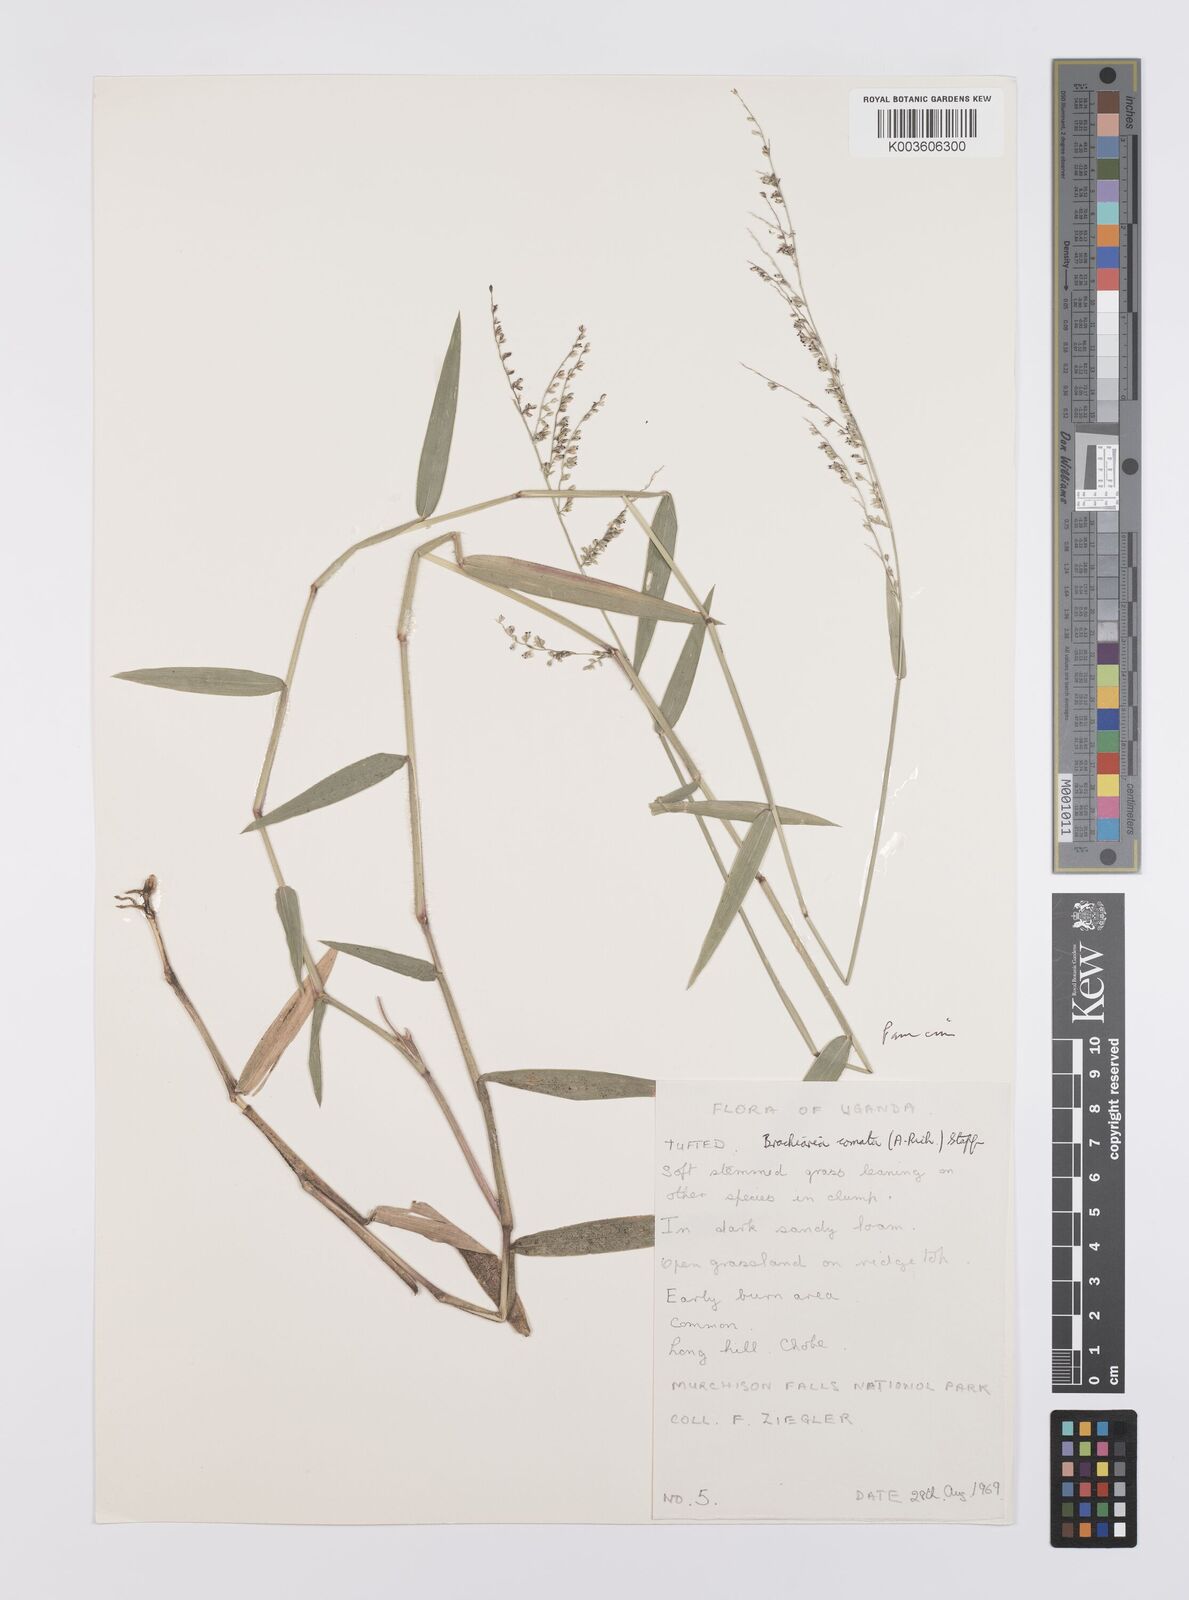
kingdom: Plantae
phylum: Tracheophyta
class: Liliopsida
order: Poales
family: Poaceae
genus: Urochloa
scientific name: Urochloa comata
